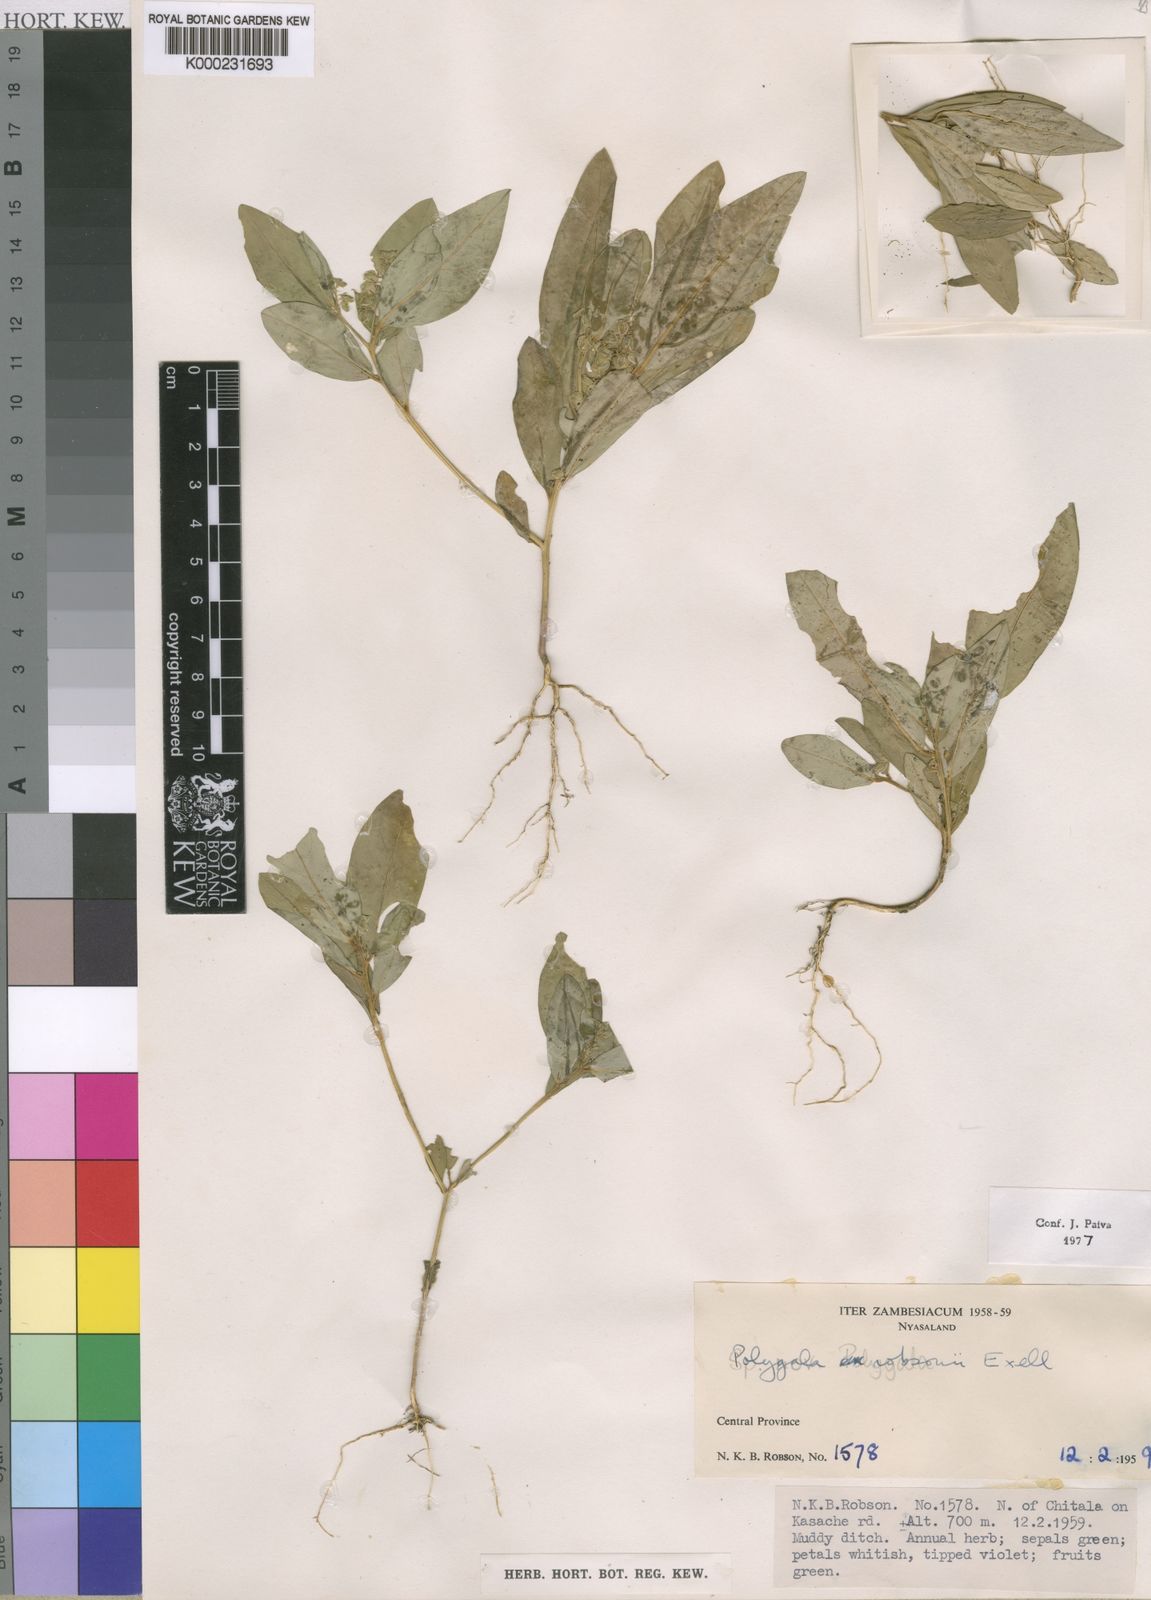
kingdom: Plantae
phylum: Tracheophyta
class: Magnoliopsida
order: Fabales
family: Polygalaceae
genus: Polygala
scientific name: Polygala robsonii
